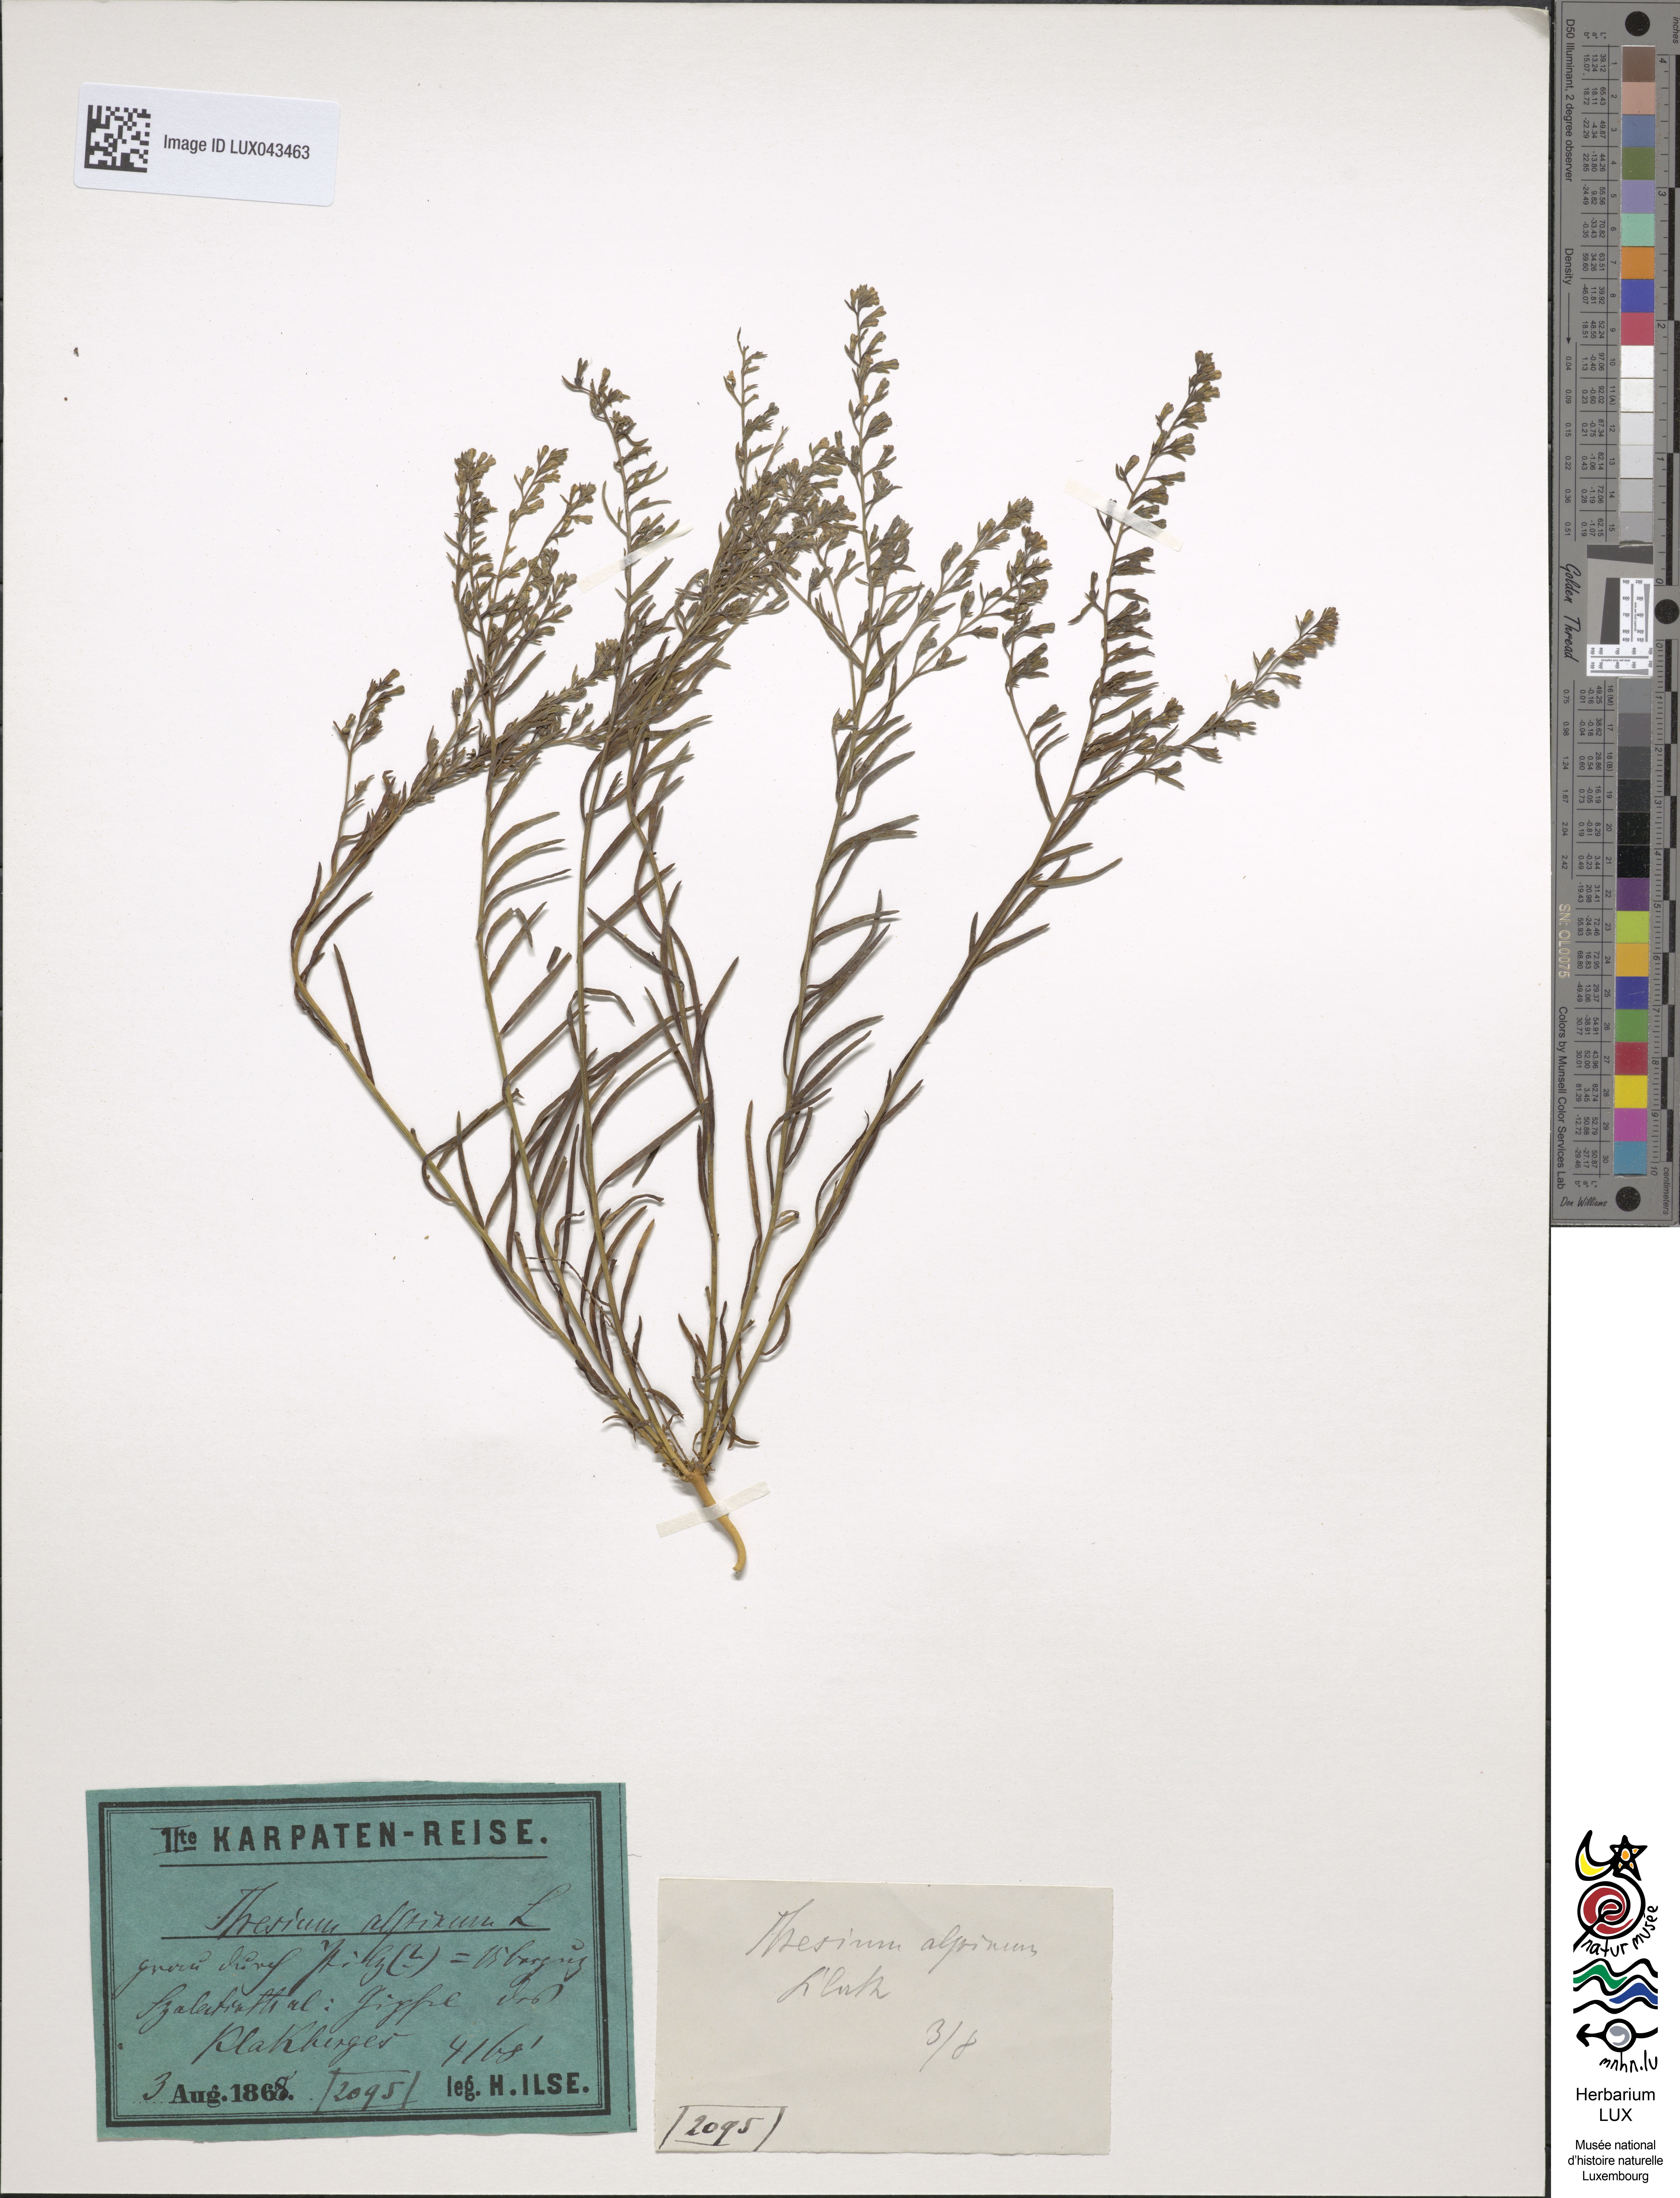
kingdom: Plantae
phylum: Tracheophyta
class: Magnoliopsida
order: Santalales
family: Thesiaceae
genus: Thesium
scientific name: Thesium alpinum
